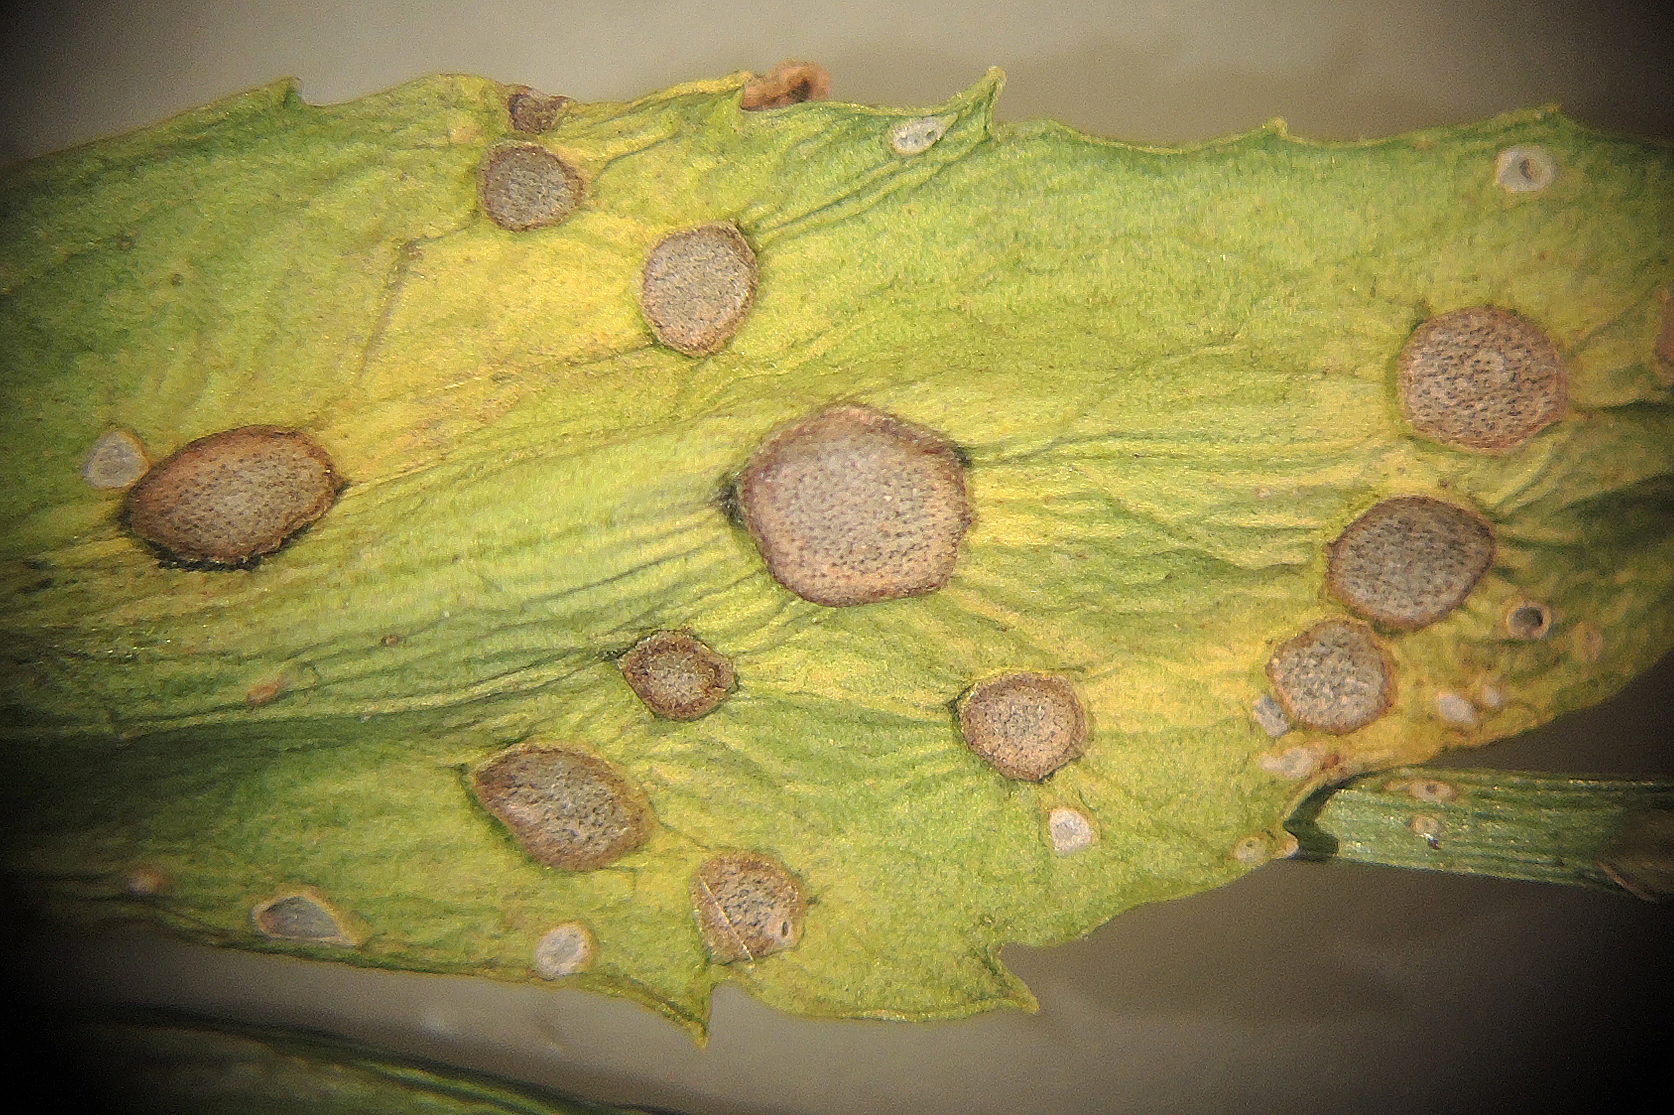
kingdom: Fungi
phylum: Ascomycota
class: Dothideomycetes
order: Mycosphaerellales
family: Mycosphaerellaceae
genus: Cercospora
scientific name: Cercospora bizzozeriana
